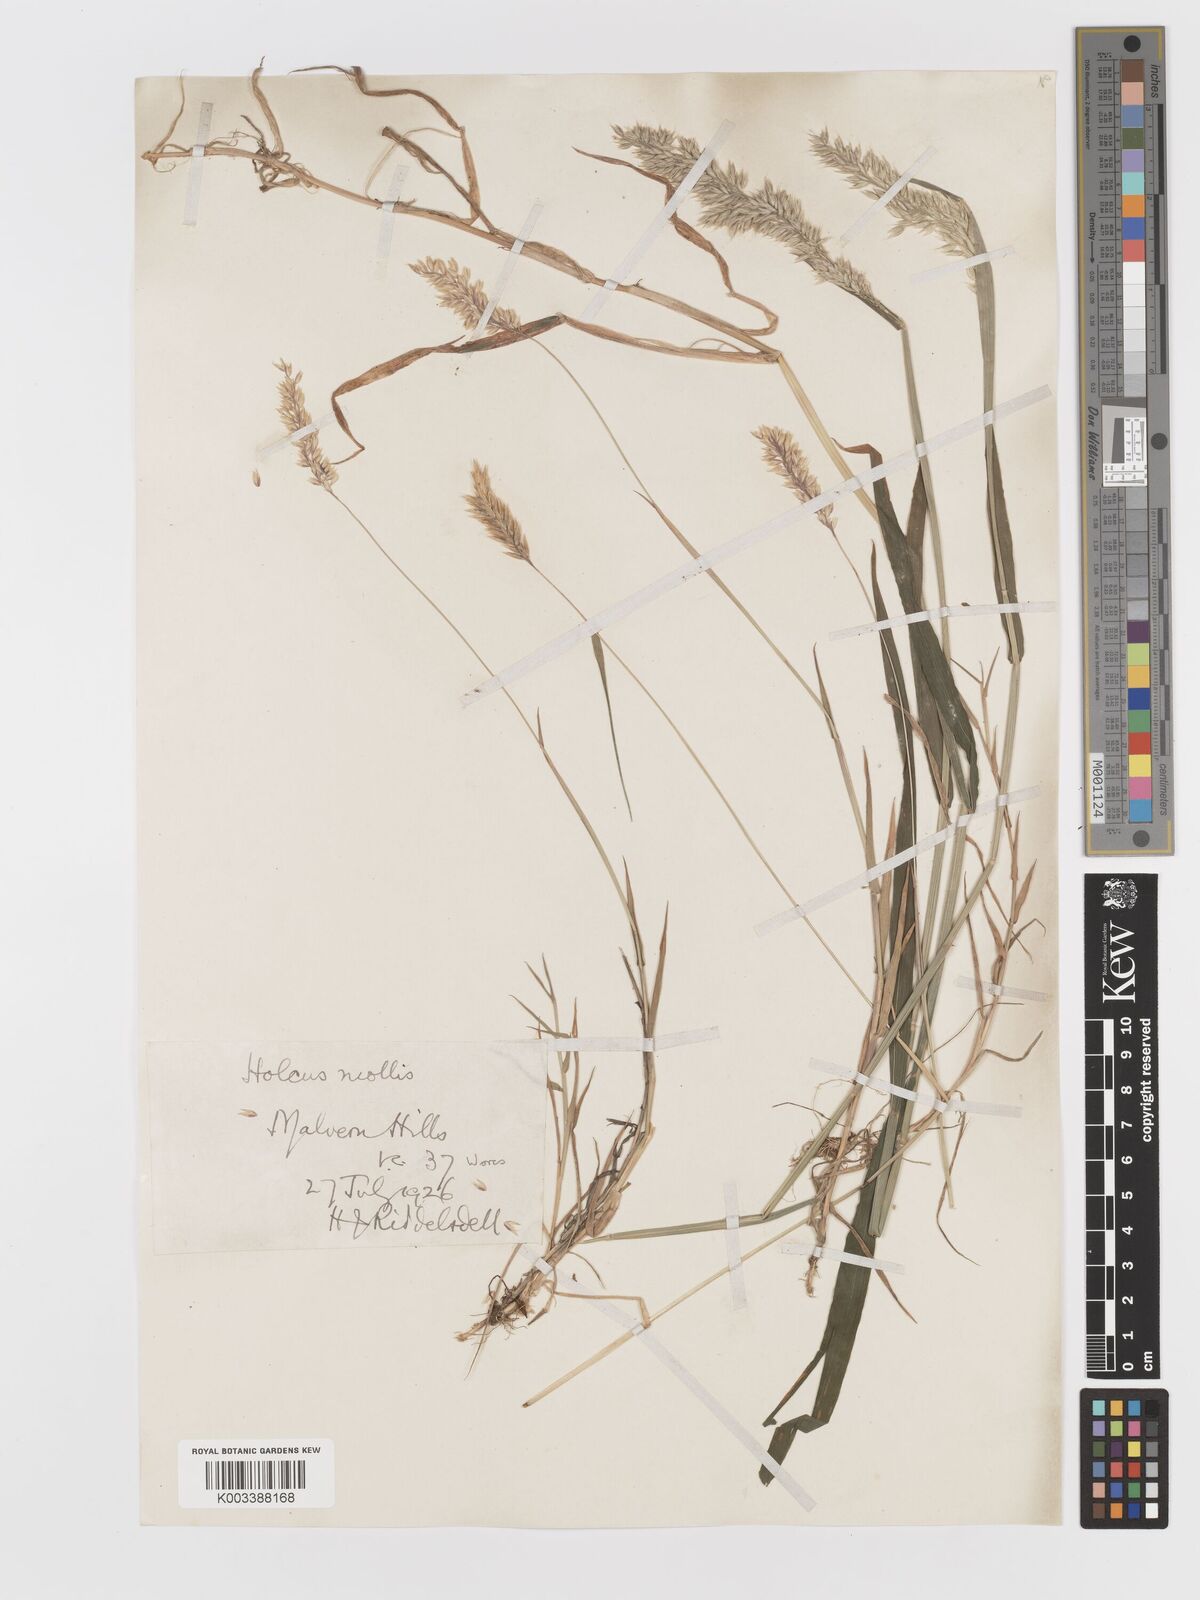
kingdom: Plantae
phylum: Tracheophyta
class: Liliopsida
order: Poales
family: Poaceae
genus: Holcus
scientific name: Holcus mollis
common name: Creeping velvetgrass
